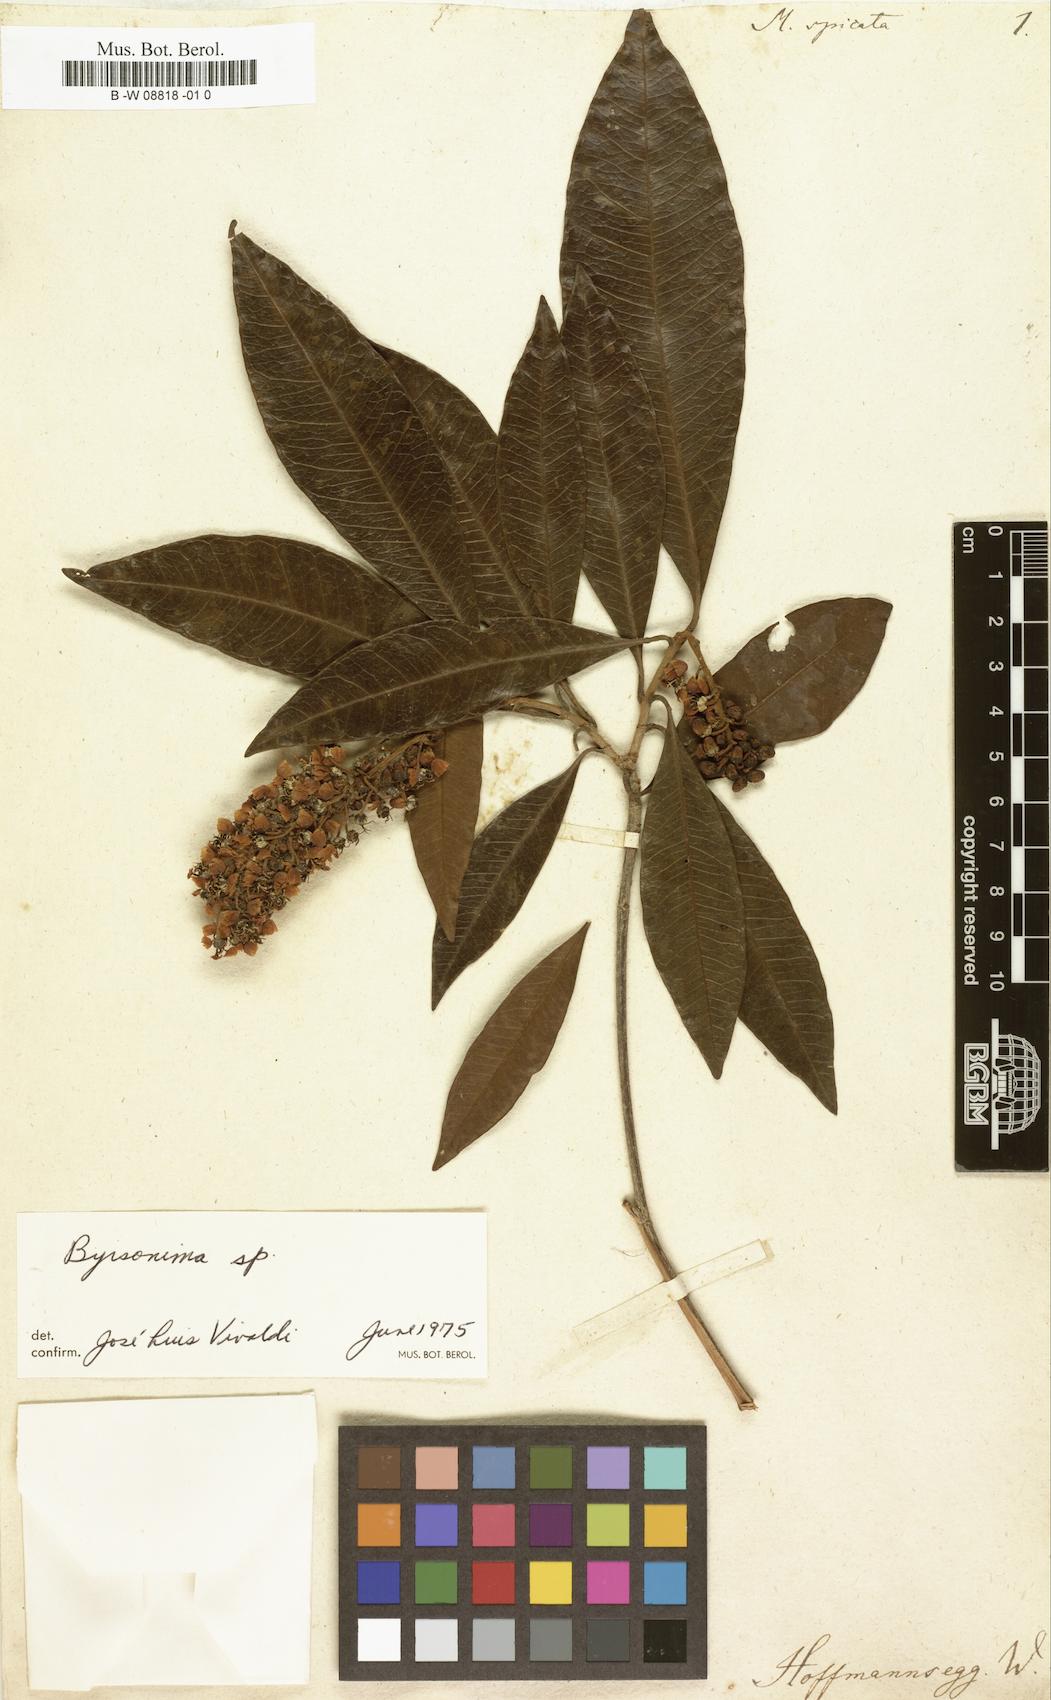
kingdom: Plantae
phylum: Tracheophyta
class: Magnoliopsida
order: Malpighiales
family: Malpighiaceae
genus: Byrsonima
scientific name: Byrsonima spicata
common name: Murixi-bark-tree
